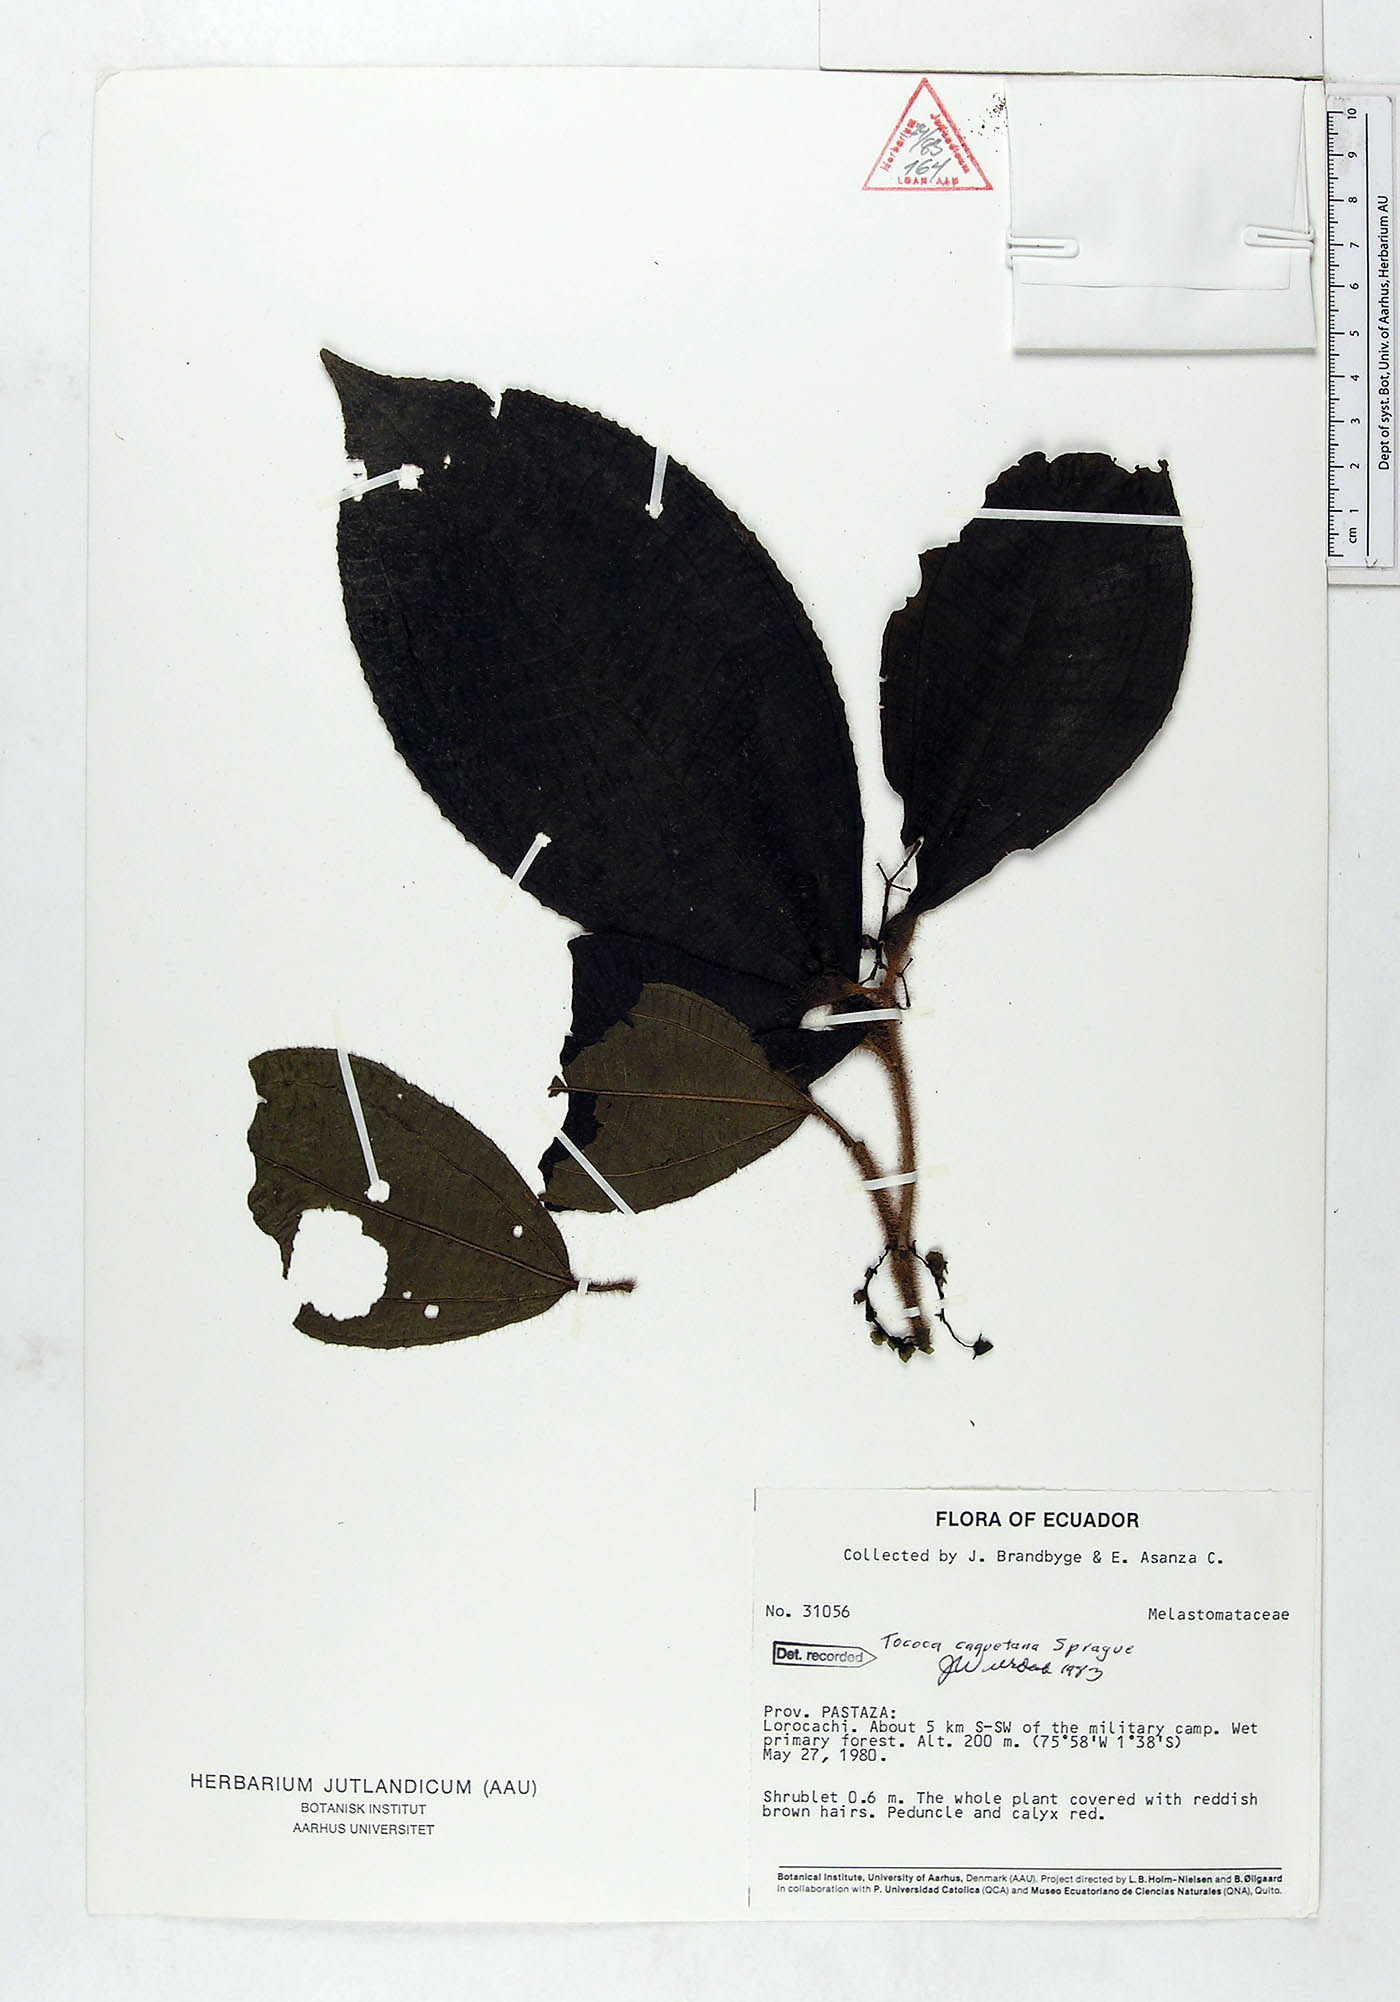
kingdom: Plantae
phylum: Tracheophyta
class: Magnoliopsida
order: Myrtales
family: Melastomataceae
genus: Miconia
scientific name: Miconia caquetana
